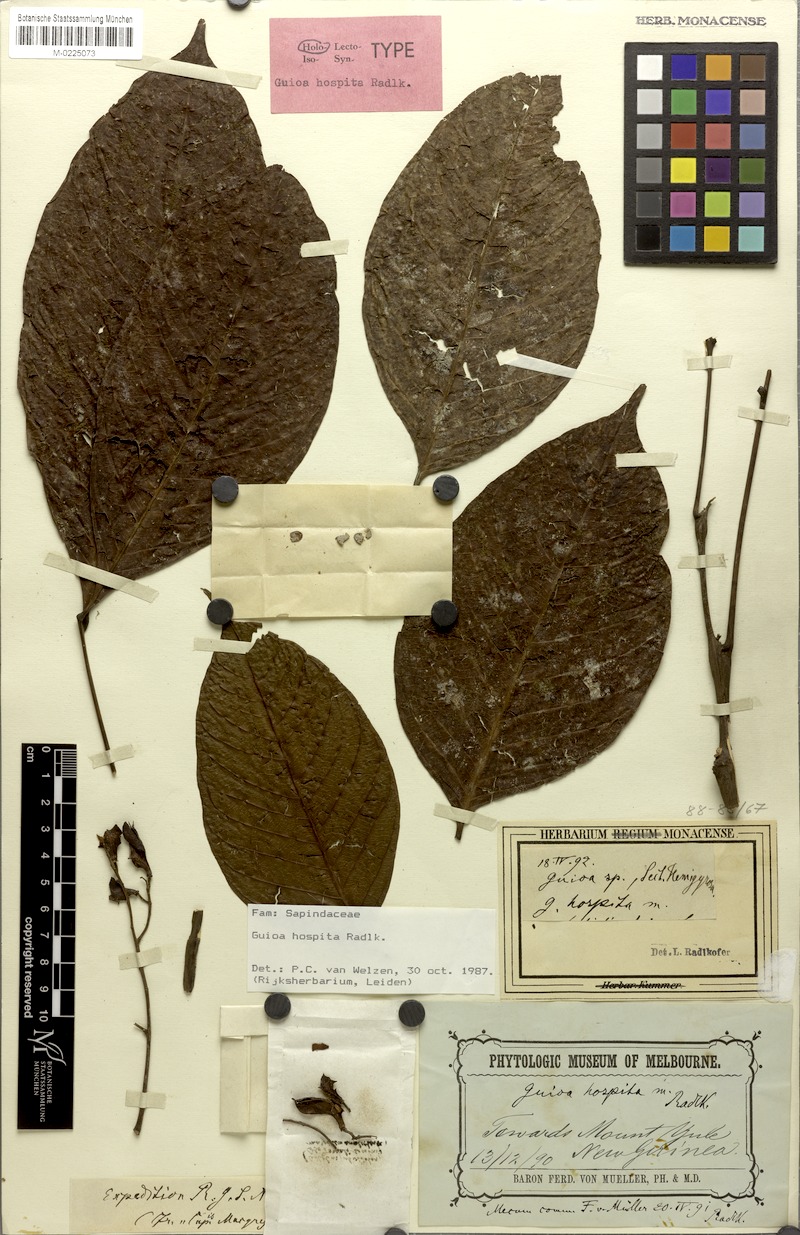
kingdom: Plantae
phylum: Tracheophyta
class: Magnoliopsida
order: Sapindales
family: Sapindaceae
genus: Guioa
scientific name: Guioa hospita
